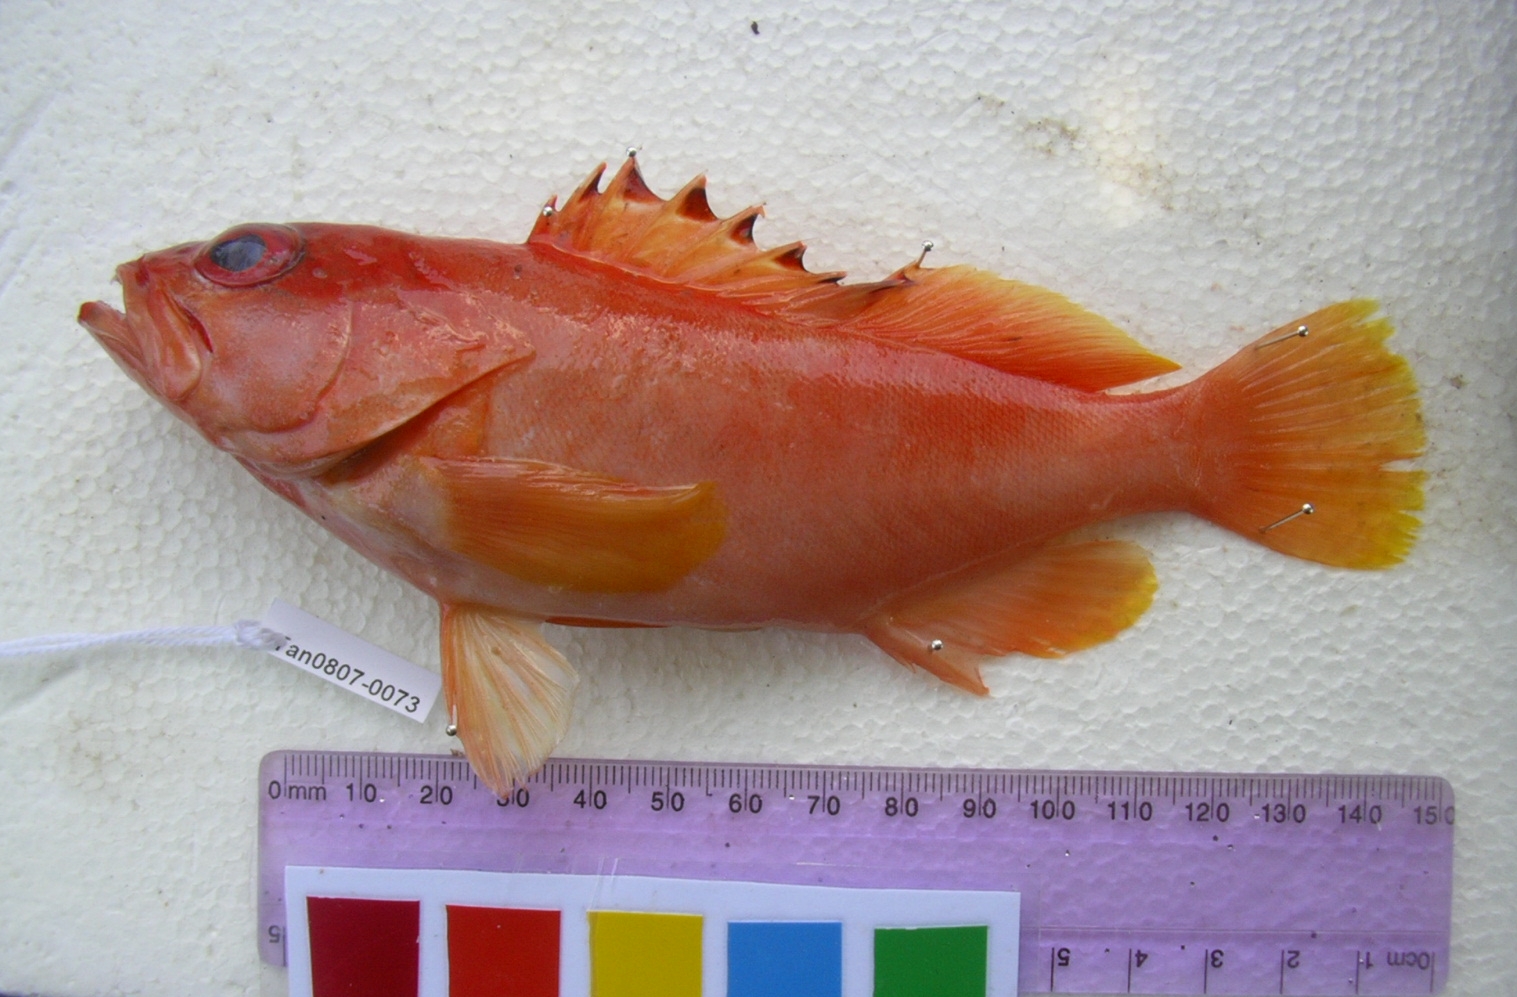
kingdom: Animalia
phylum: Chordata
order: Perciformes
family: Serranidae
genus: Epinephelus
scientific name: Epinephelus fasciatus
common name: Blacktip grouper
